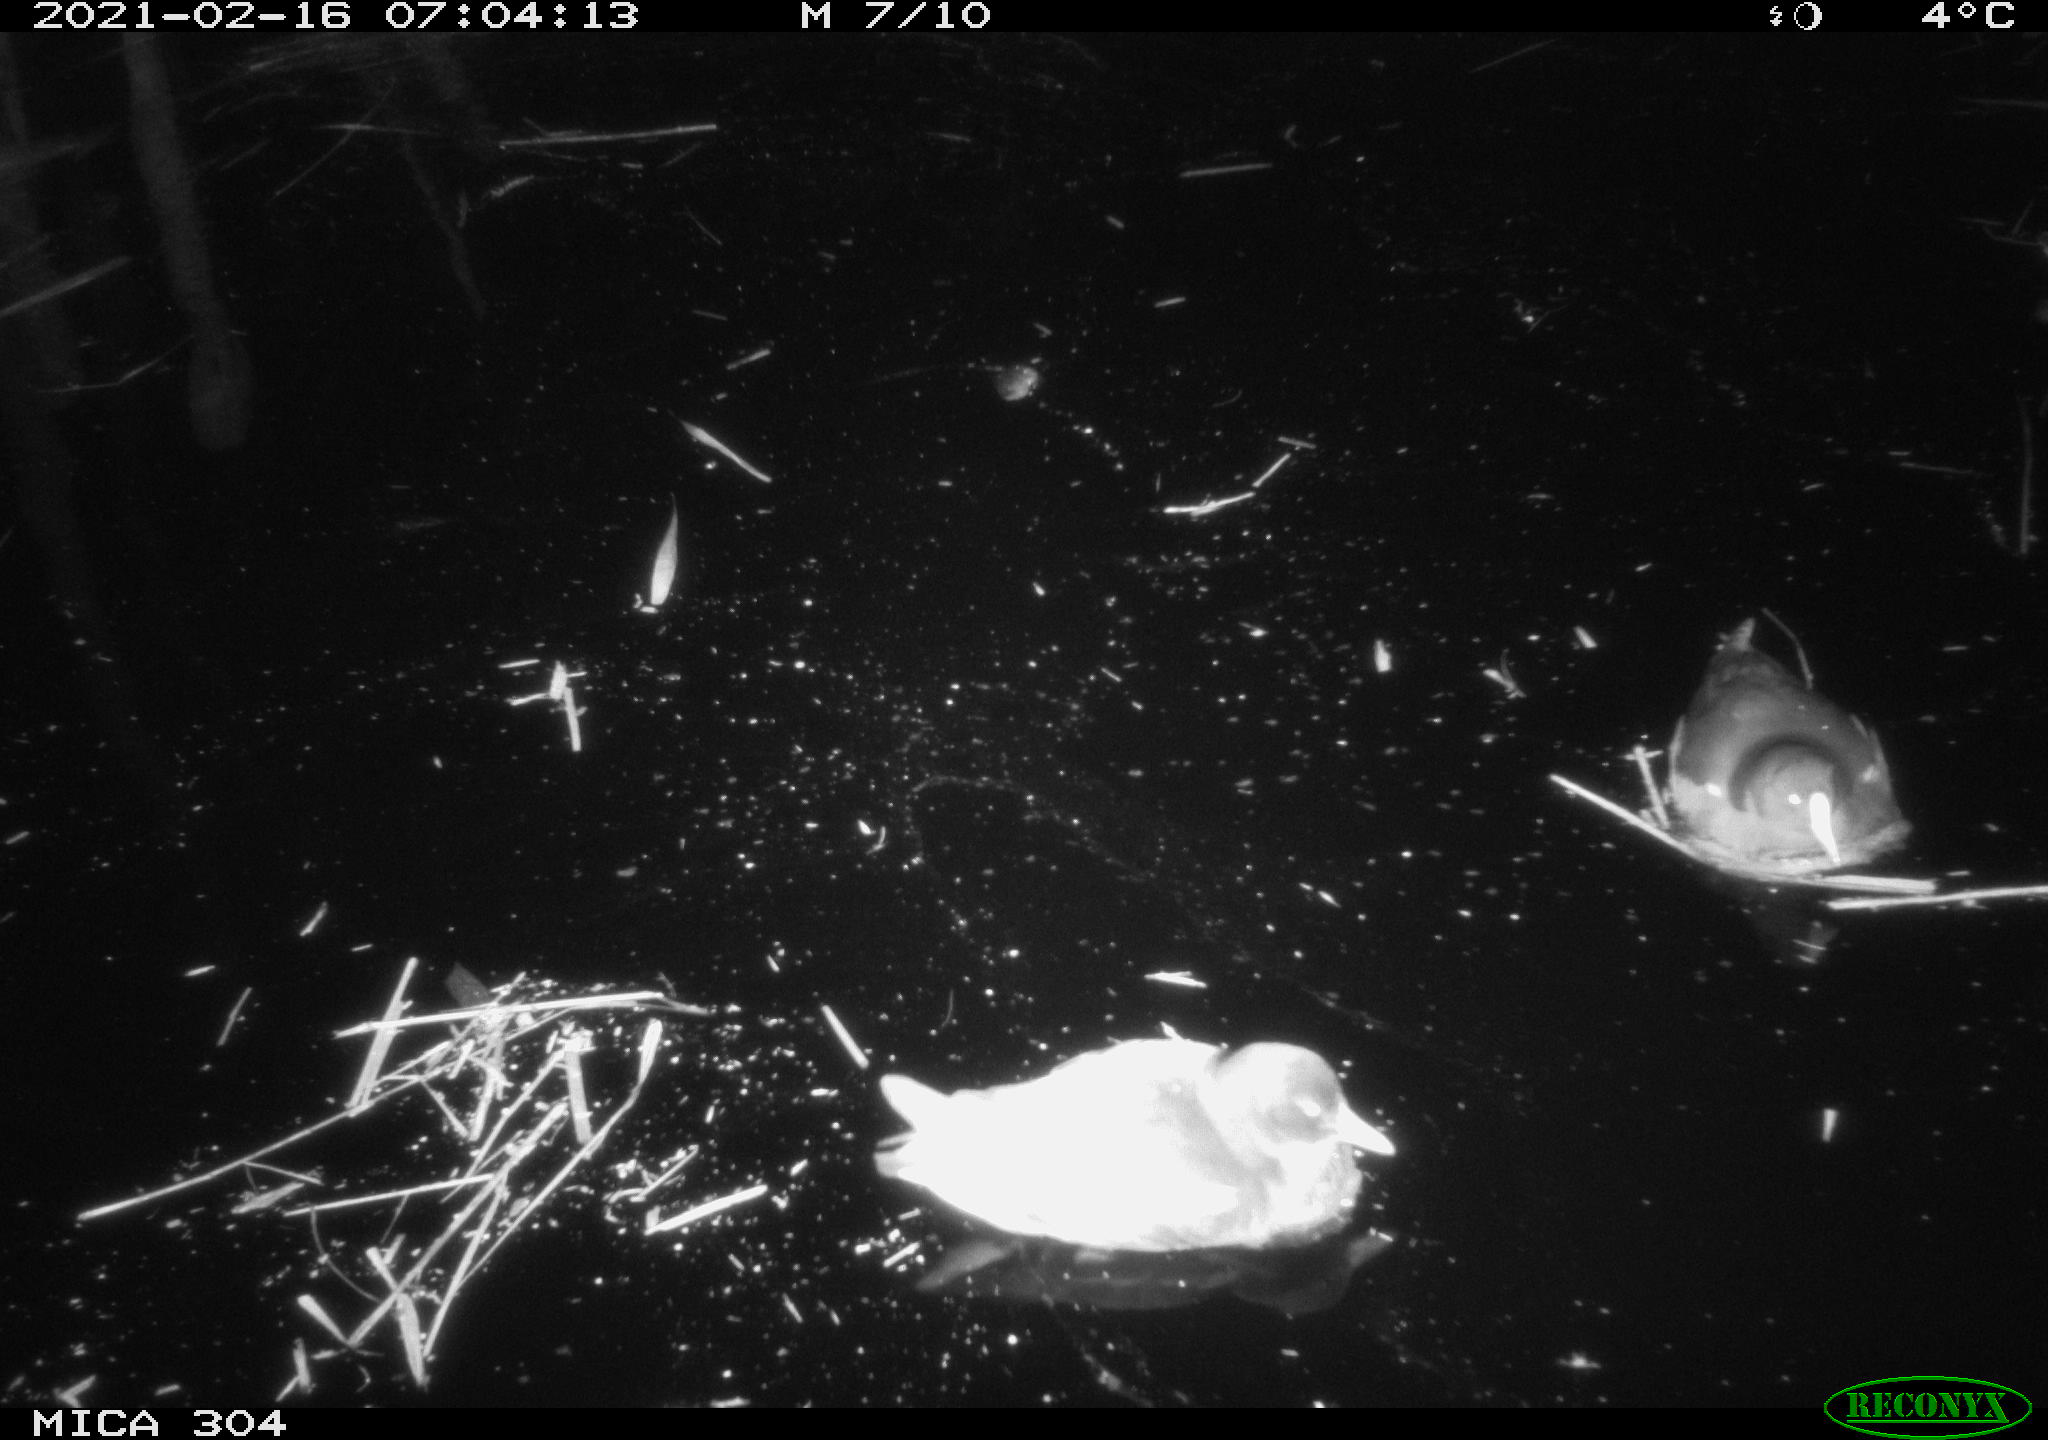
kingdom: Animalia
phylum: Chordata
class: Aves
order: Gruiformes
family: Rallidae
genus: Fulica
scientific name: Fulica atra
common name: Eurasian coot
